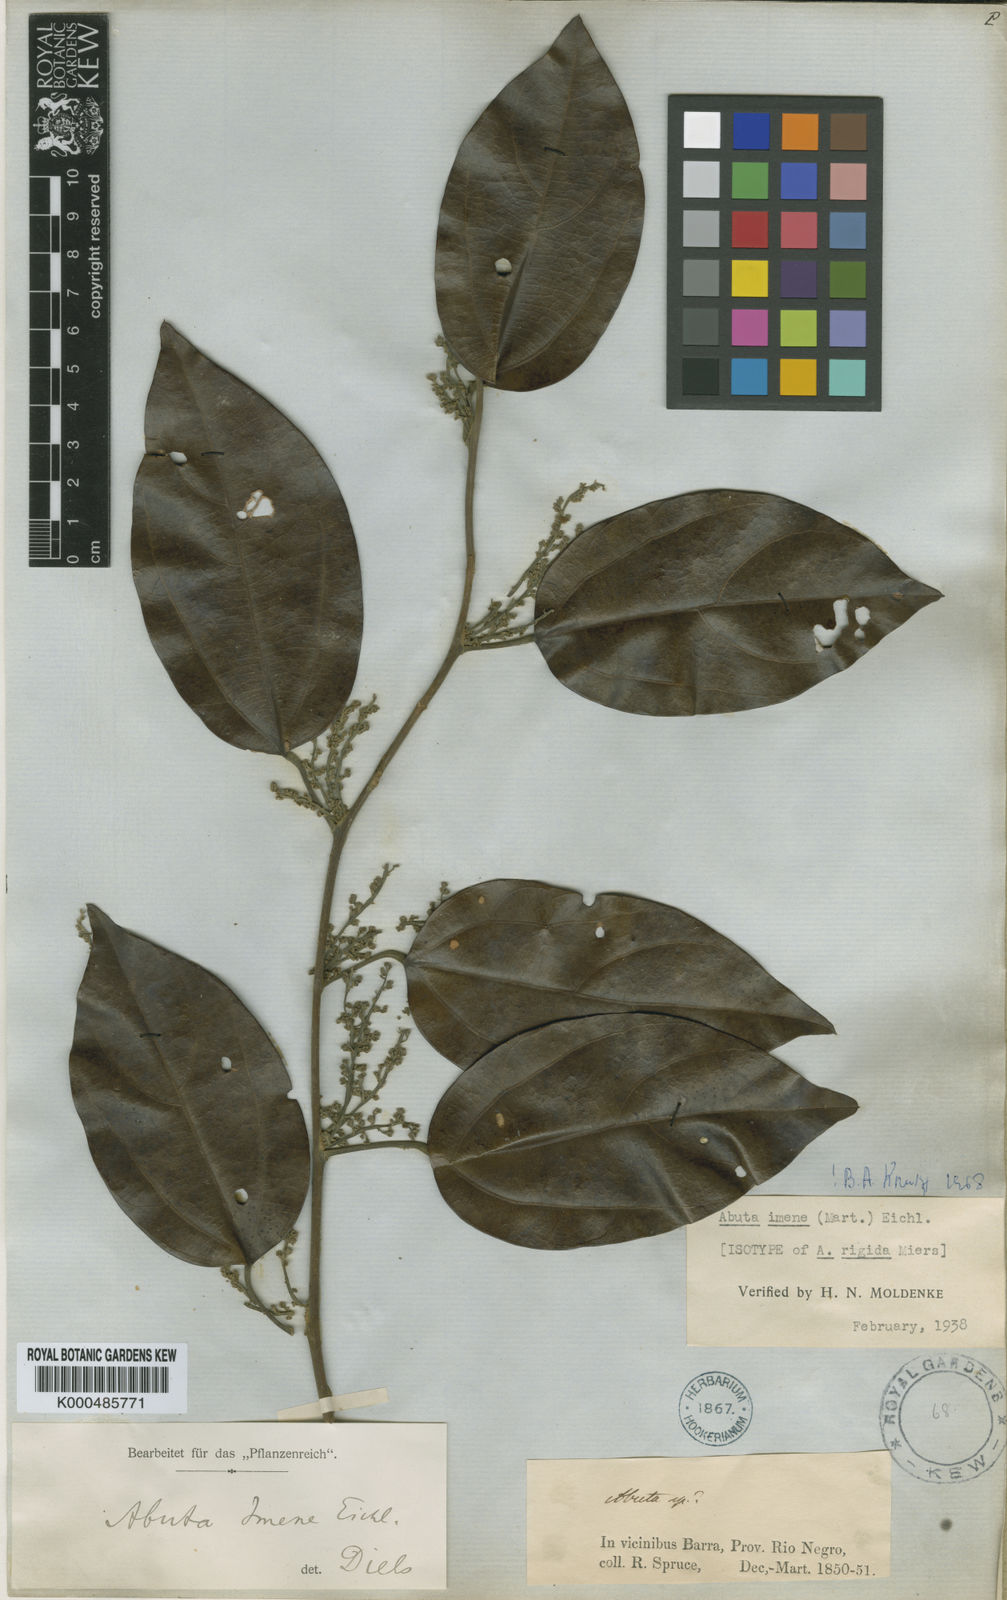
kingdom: Plantae
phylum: Tracheophyta
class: Magnoliopsida
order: Ranunculales
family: Menispermaceae
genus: Abuta
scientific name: Abuta imene
